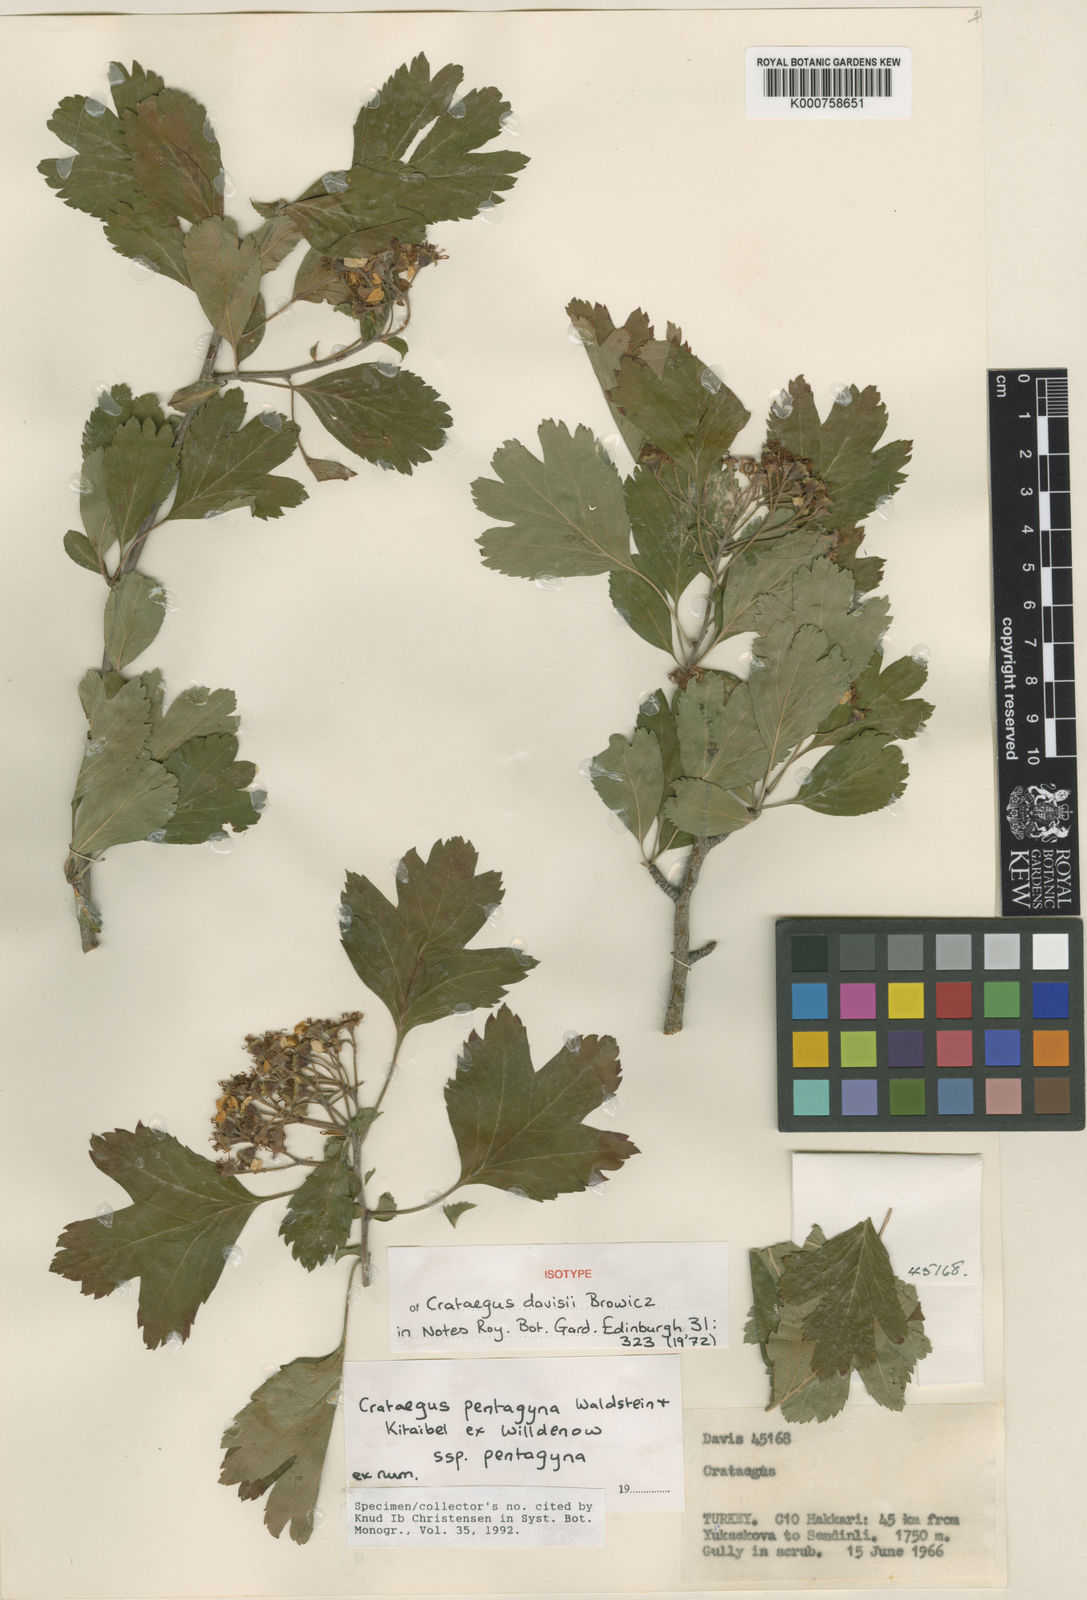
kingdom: Plantae
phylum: Tracheophyta
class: Magnoliopsida
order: Rosales
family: Rosaceae
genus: Crataegus
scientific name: Crataegus pentagyna
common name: Small-flowered black hawthorn
